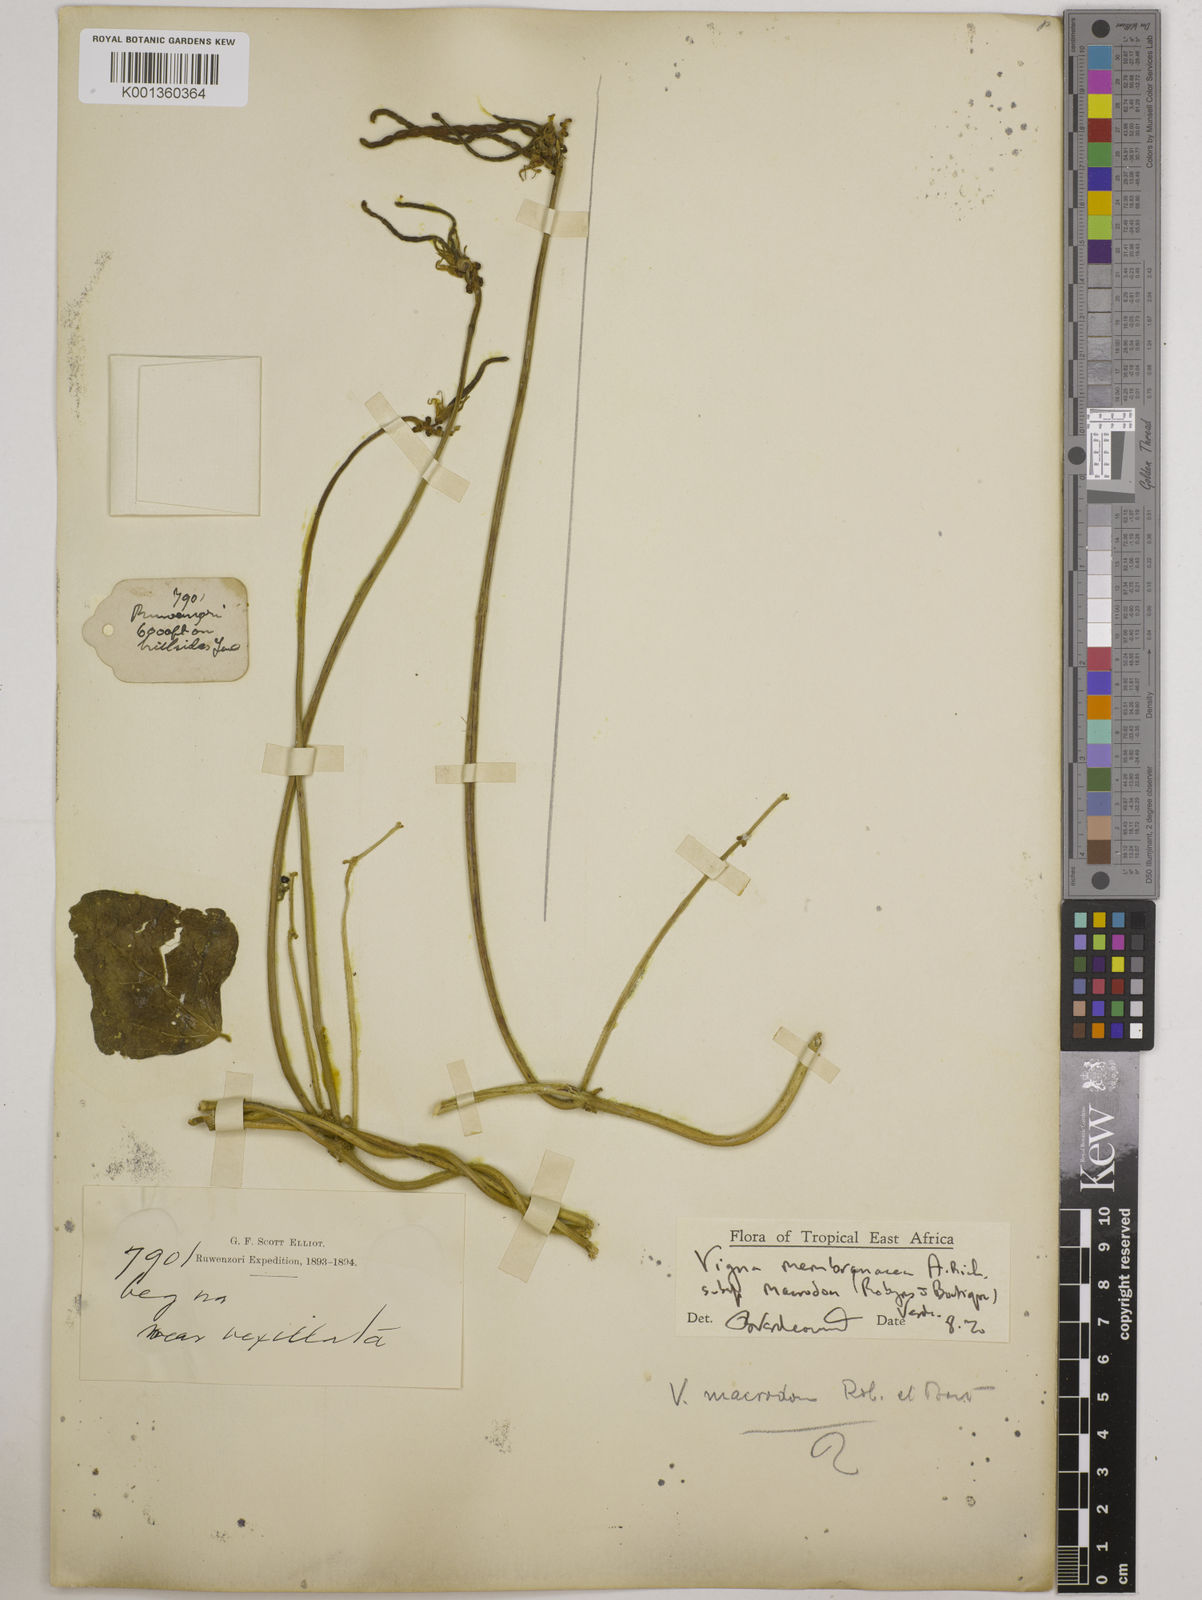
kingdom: Plantae
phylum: Tracheophyta
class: Magnoliopsida
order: Fabales
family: Fabaceae
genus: Vigna
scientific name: Vigna
